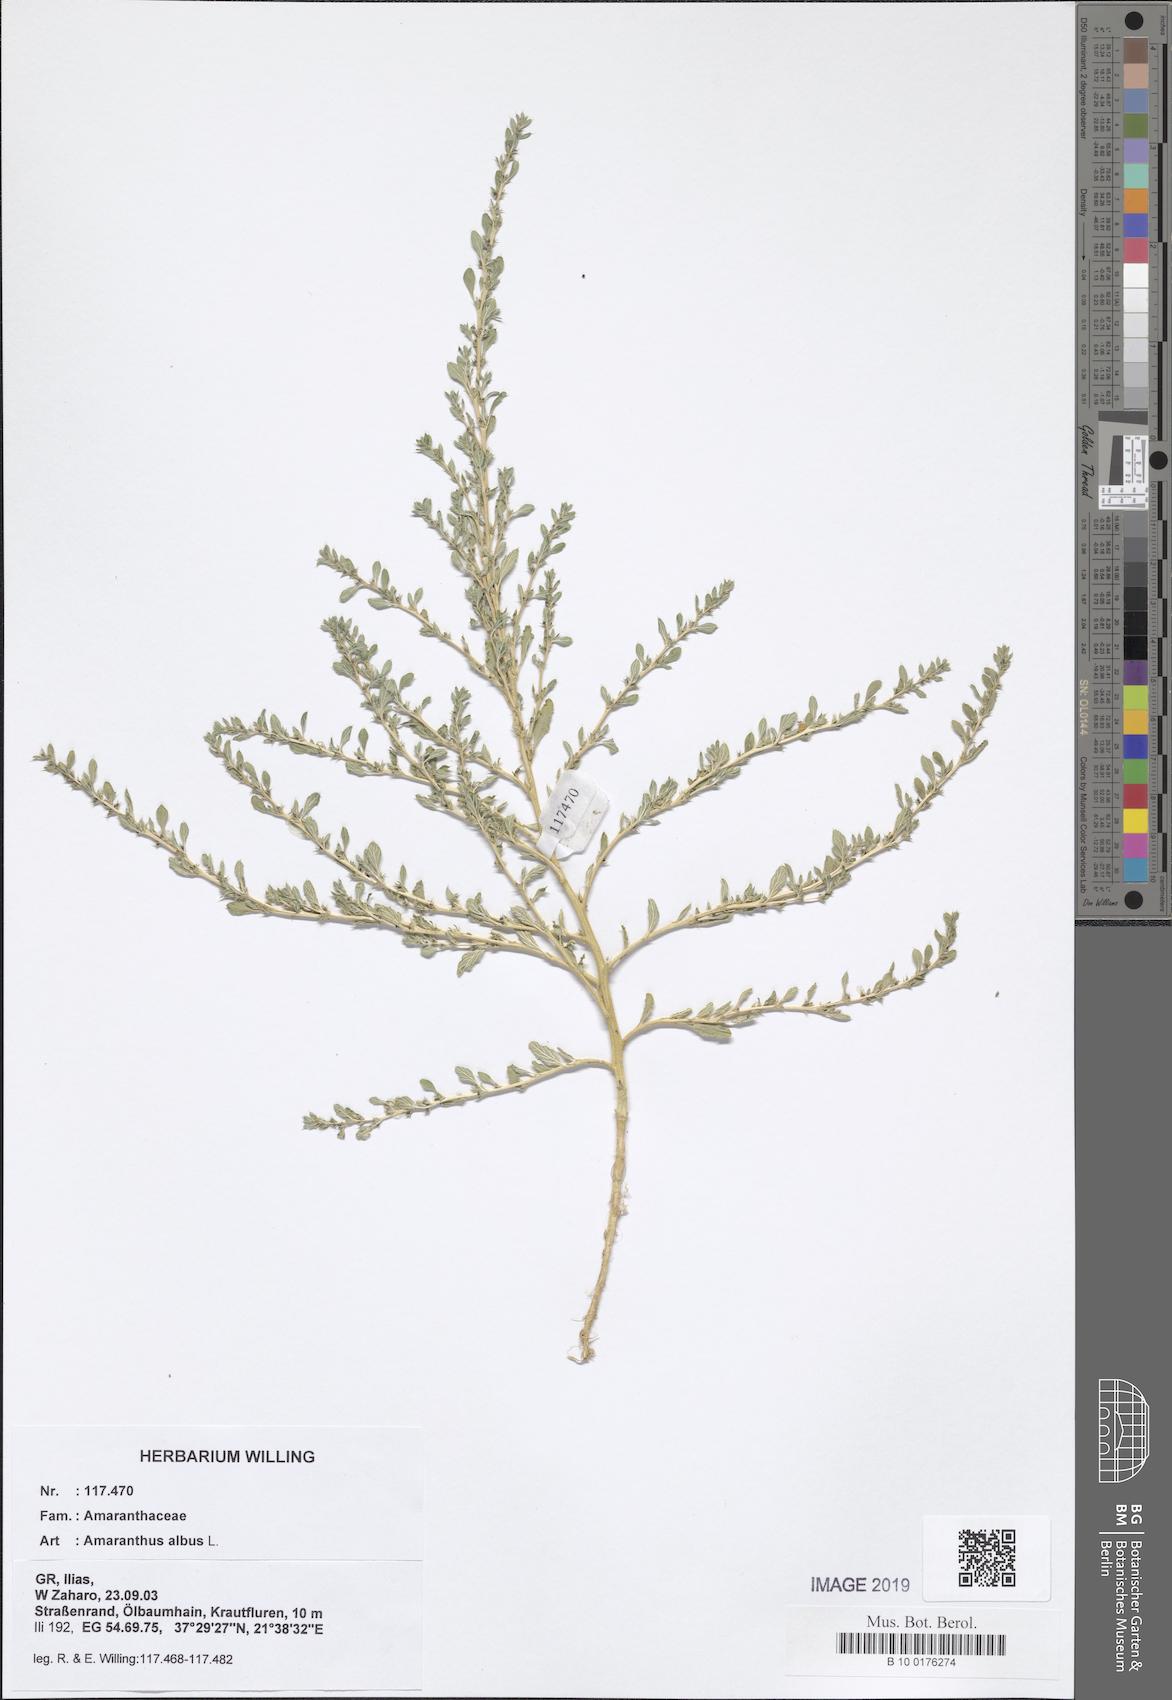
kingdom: Plantae
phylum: Tracheophyta
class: Magnoliopsida
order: Caryophyllales
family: Amaranthaceae
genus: Amaranthus
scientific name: Amaranthus albus
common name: White pigweed
